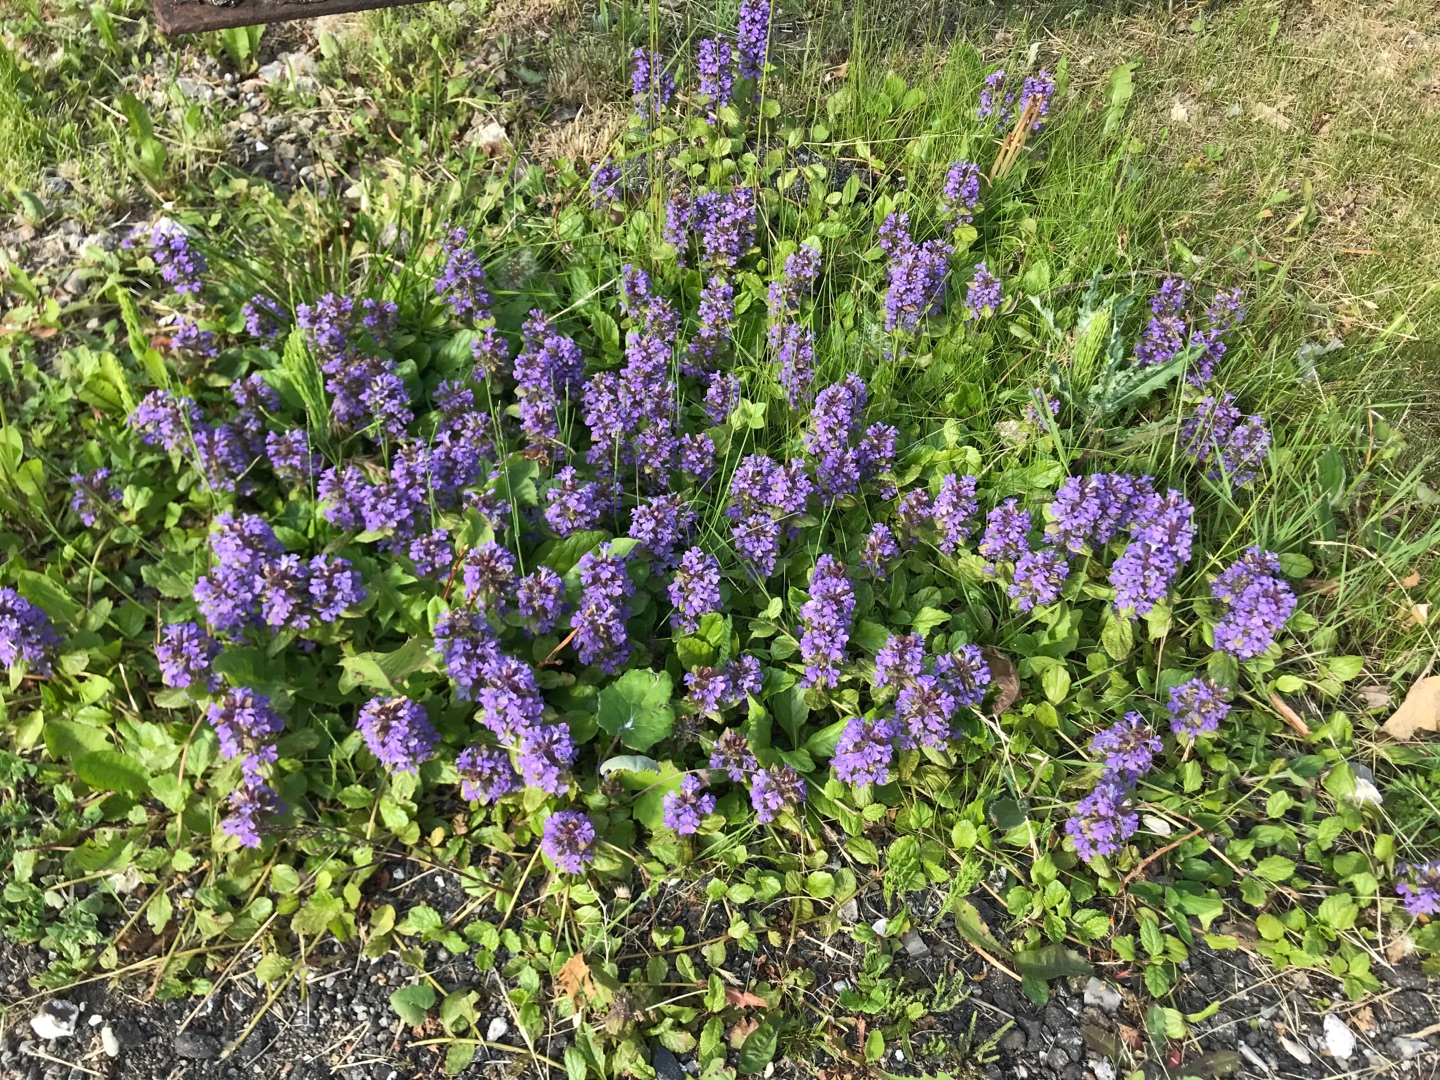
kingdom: Plantae
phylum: Tracheophyta
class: Magnoliopsida
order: Lamiales
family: Lamiaceae
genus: Ajuga
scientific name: Ajuga reptans
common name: Krybende læbeløs
